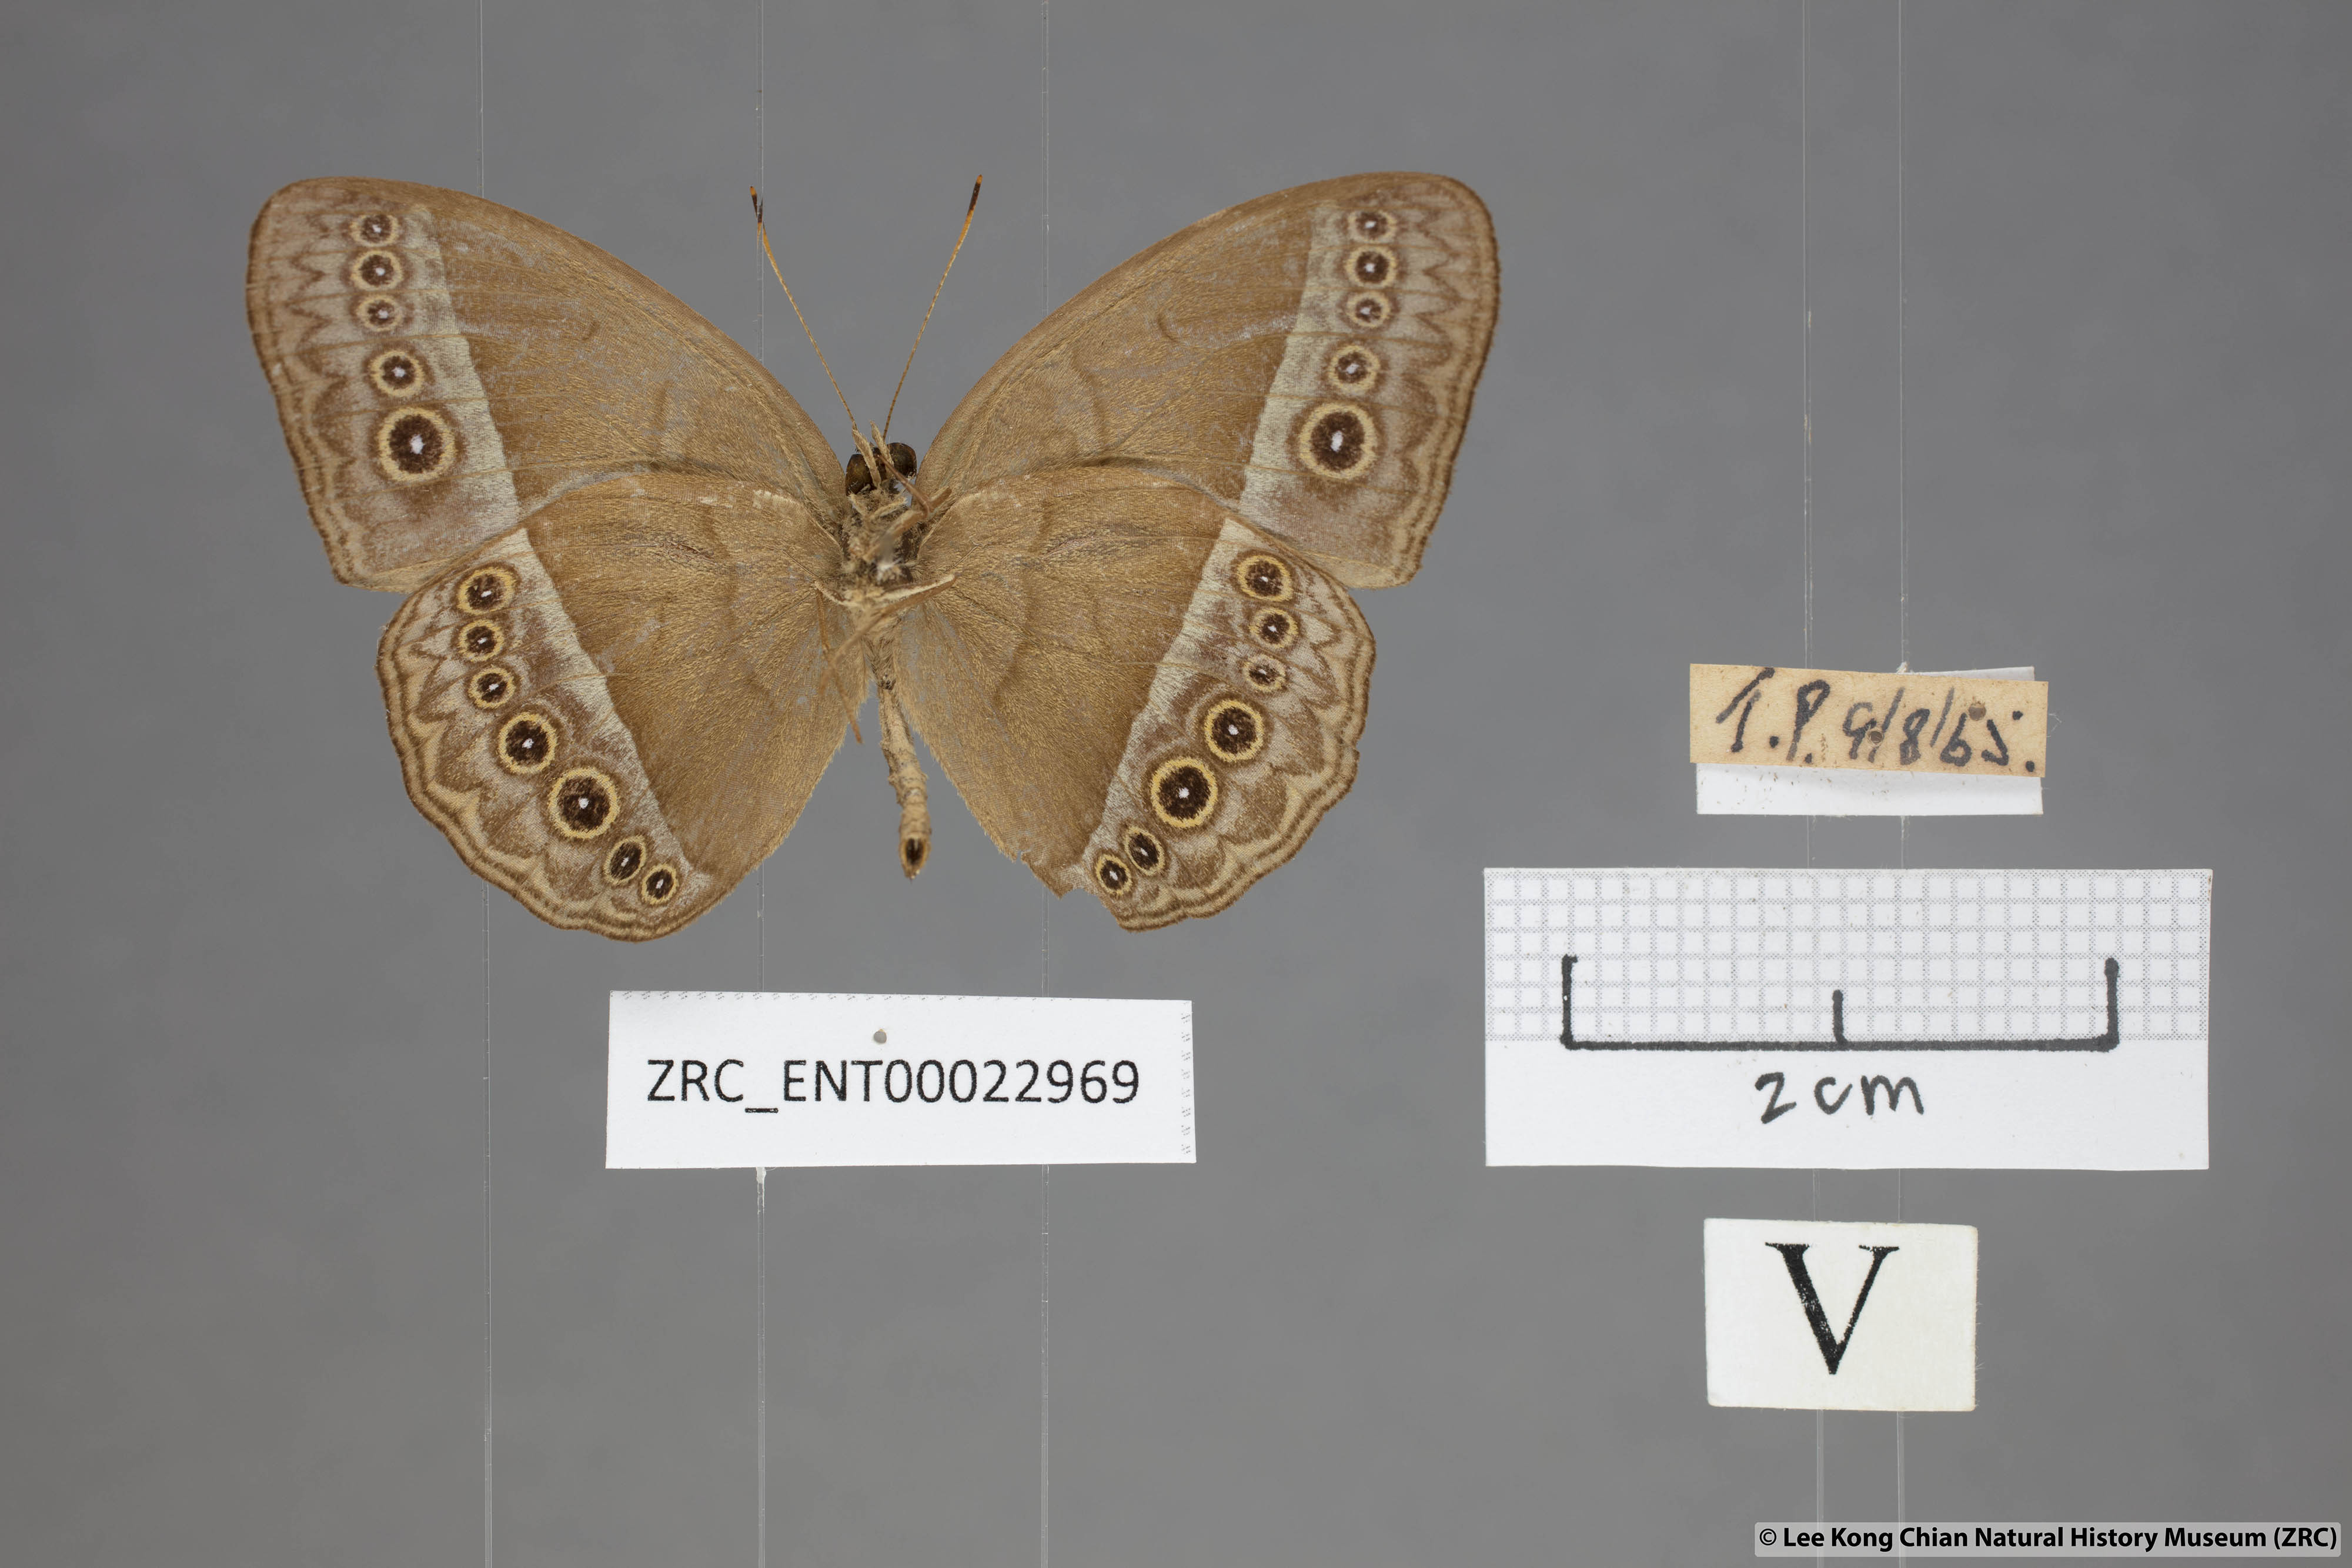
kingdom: Animalia
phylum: Arthropoda
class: Insecta
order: Lepidoptera
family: Nymphalidae
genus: Mycalesis
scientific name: Mycalesis orseis
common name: Purple bushbrown
